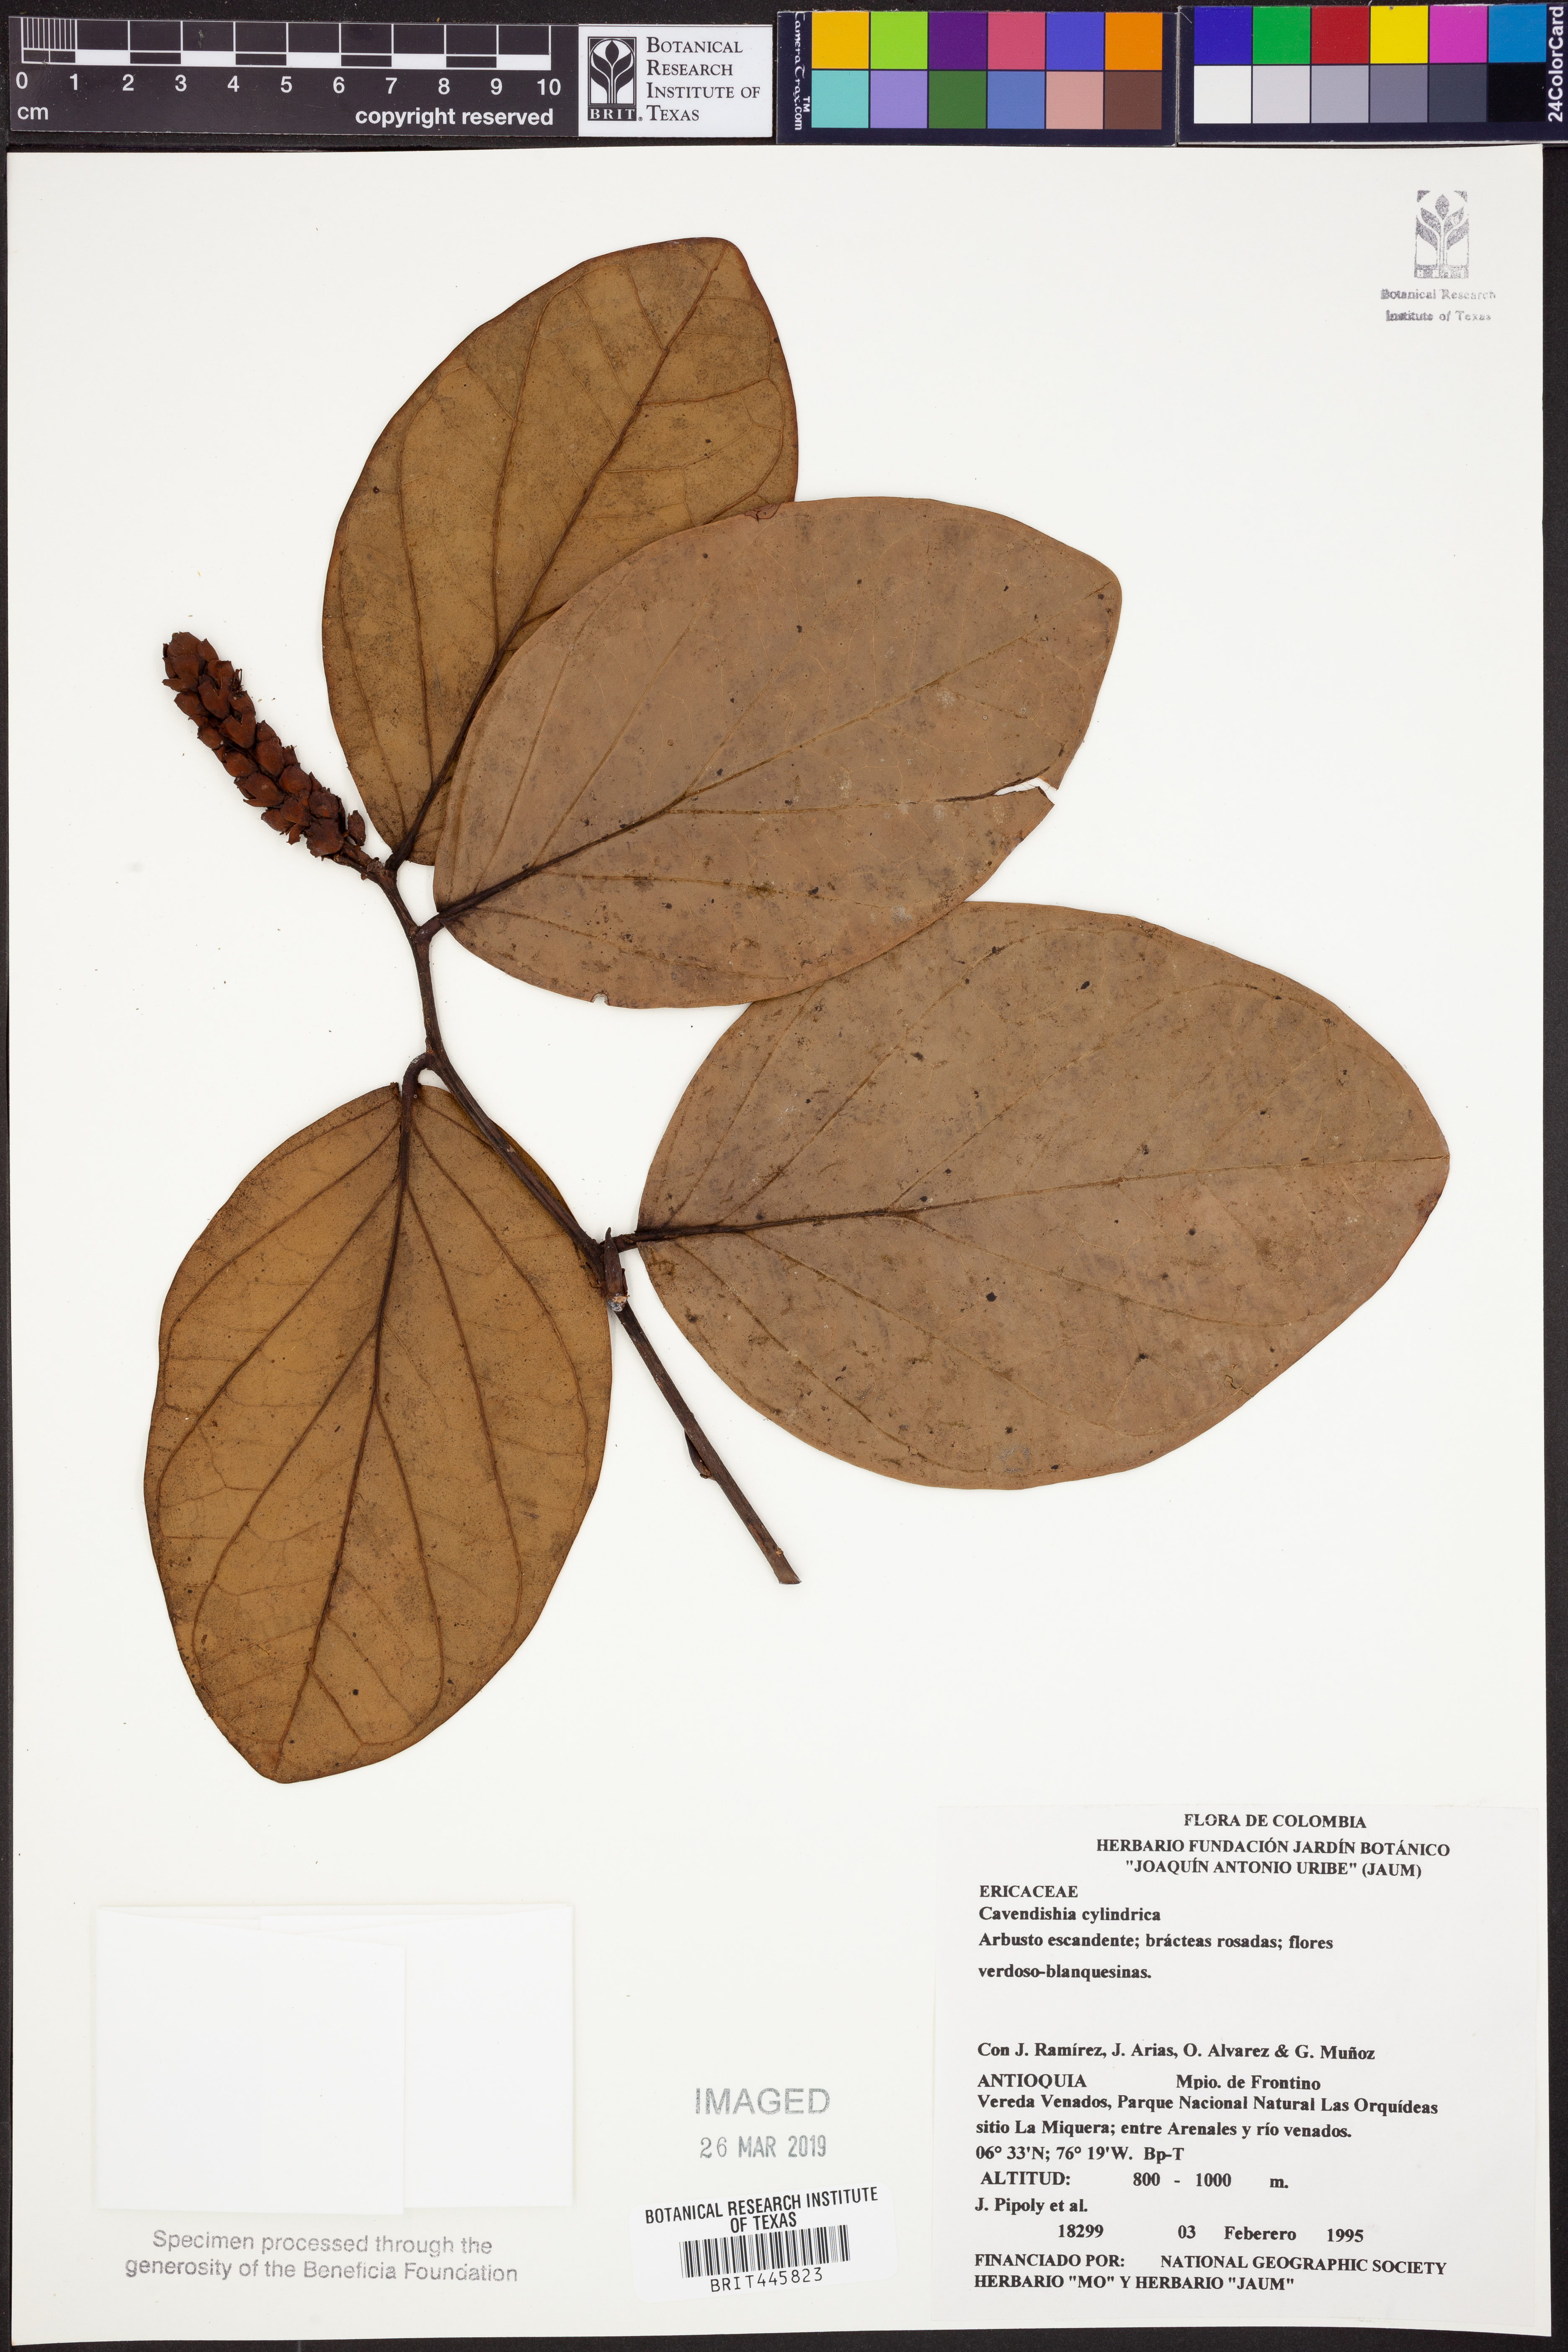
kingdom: Plantae
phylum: Tracheophyta
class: Magnoliopsida
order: Ericales
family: Ericaceae
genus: Cavendishia
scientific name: Cavendishia
